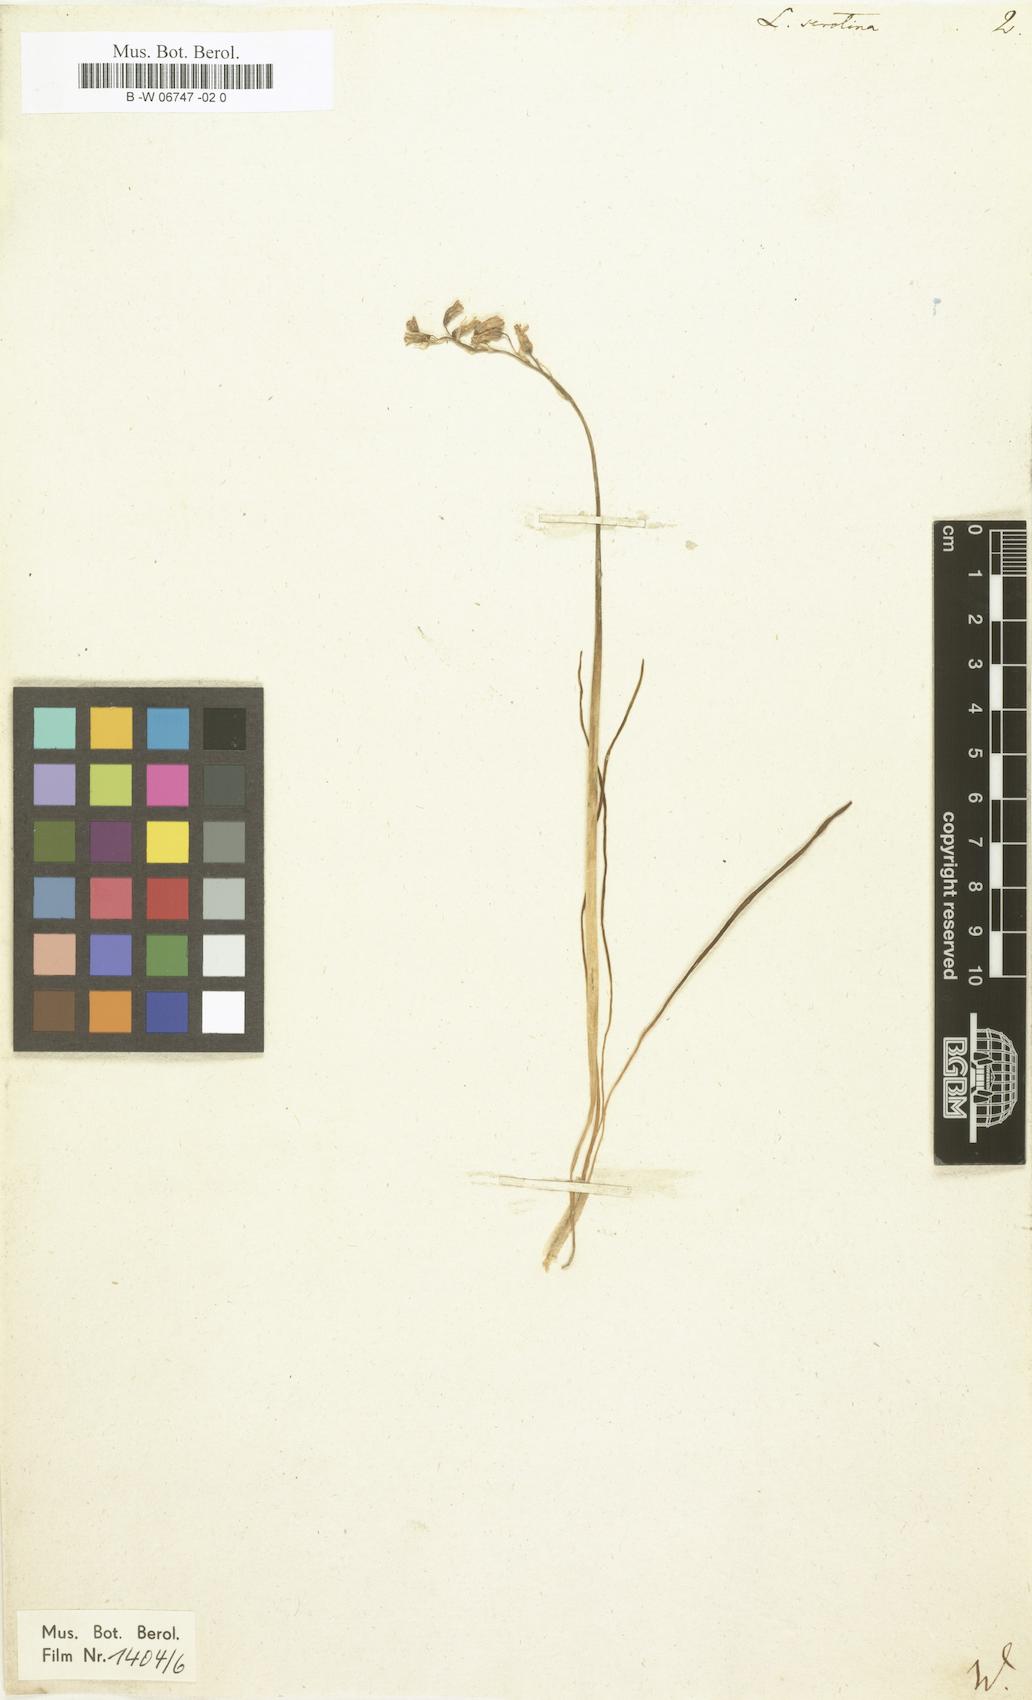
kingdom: Plantae
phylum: Tracheophyta
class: Liliopsida
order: Asparagales
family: Asparagaceae
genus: Dipcadi
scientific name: Dipcadi serotinum
